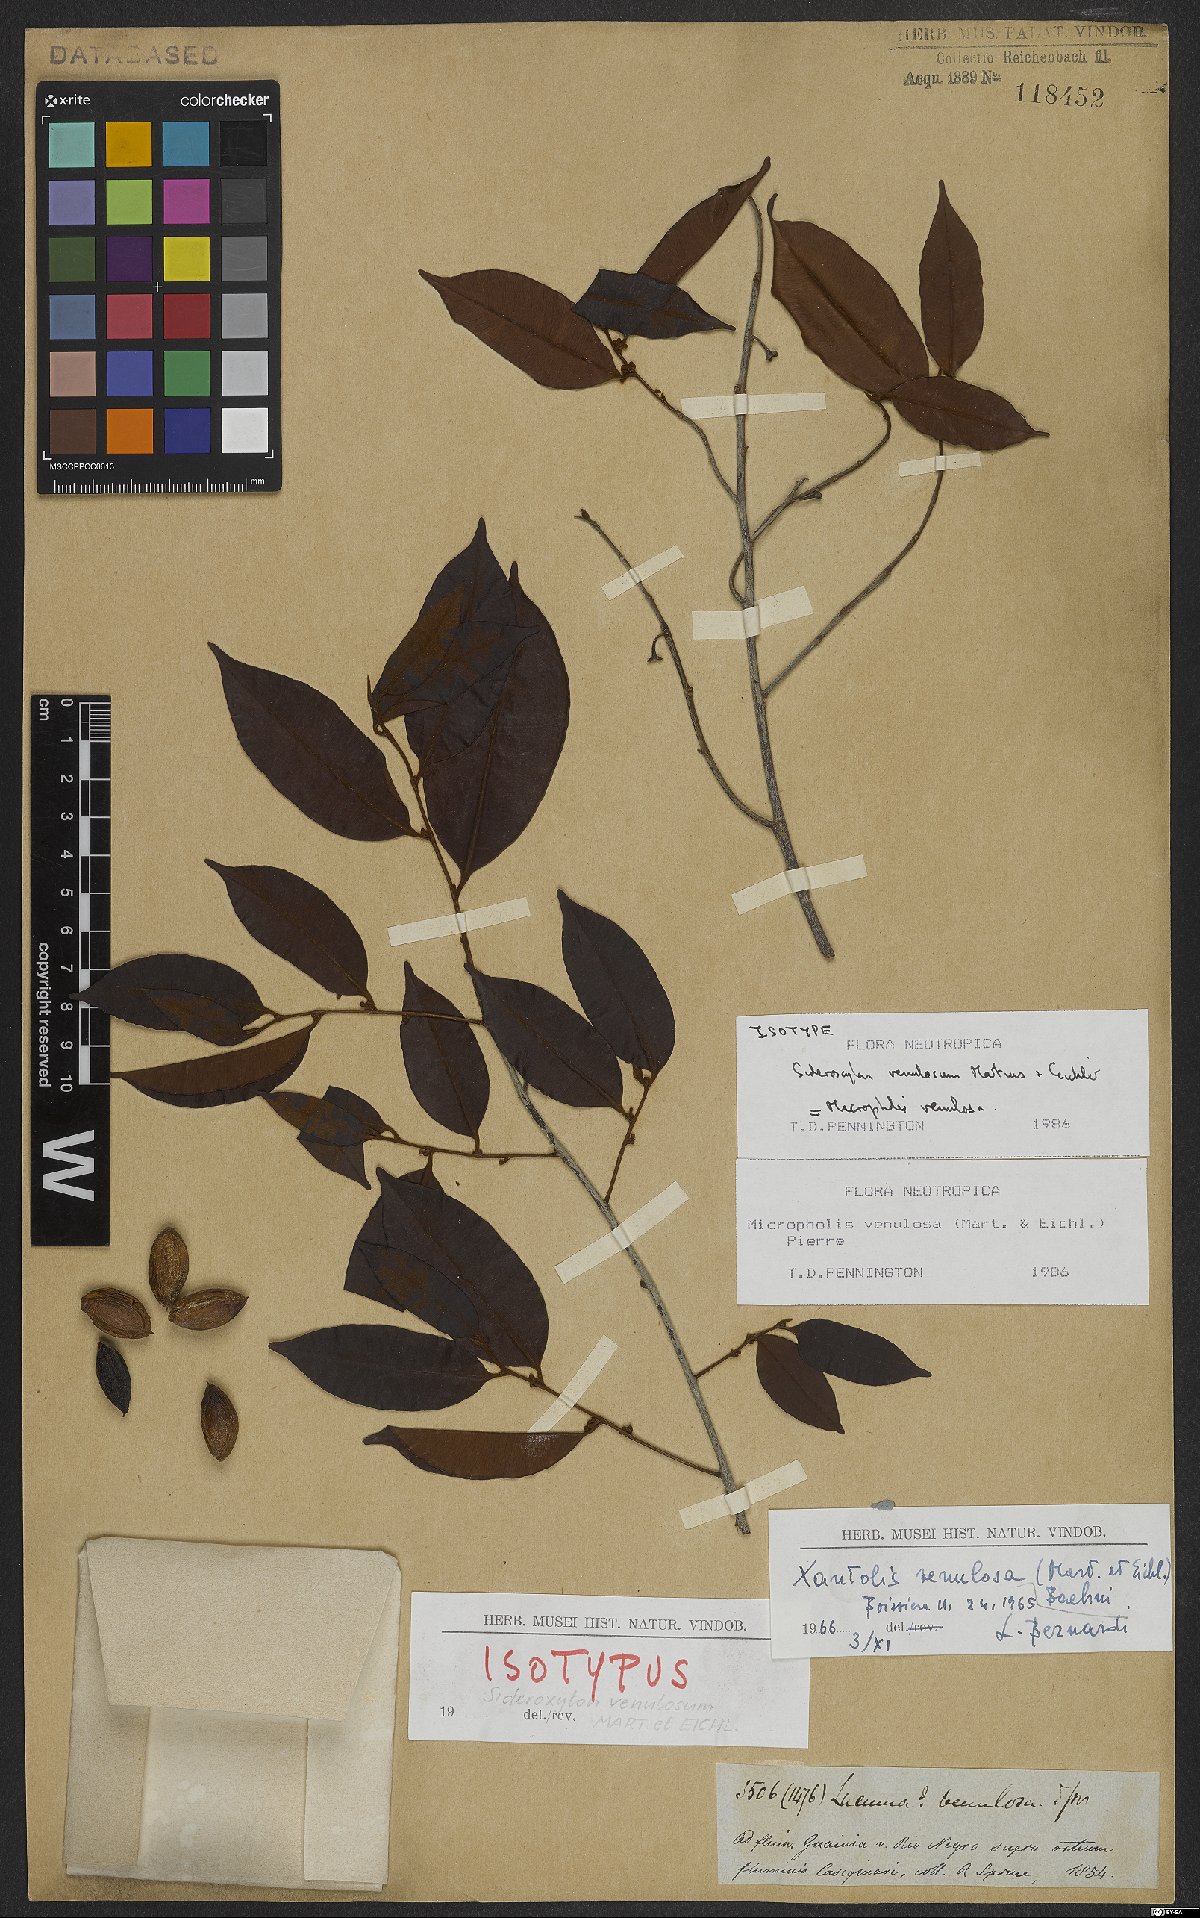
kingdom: Plantae
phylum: Tracheophyta
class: Magnoliopsida
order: Ericales
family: Sapotaceae
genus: Micropholis
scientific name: Micropholis venulosa
